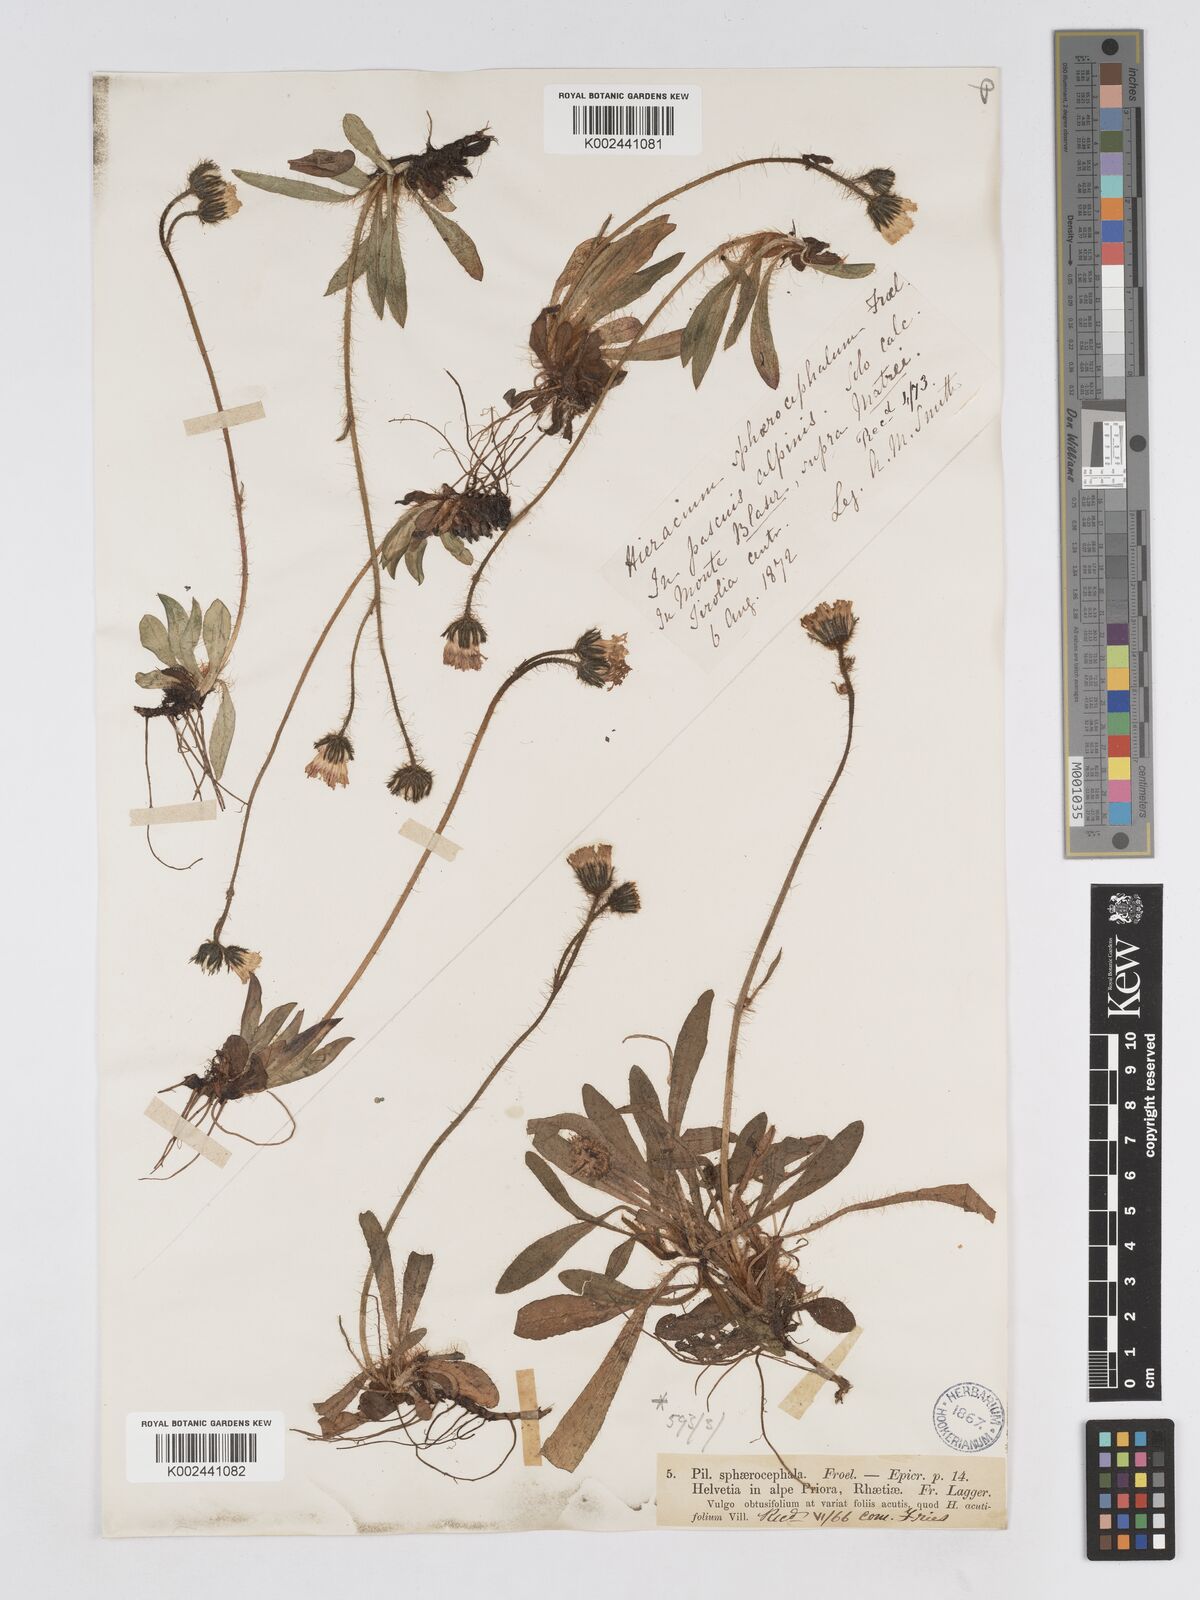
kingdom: Plantae
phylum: Tracheophyta
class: Magnoliopsida
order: Asterales
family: Asteraceae
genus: Pilosella
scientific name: Pilosella sphaerocephala
